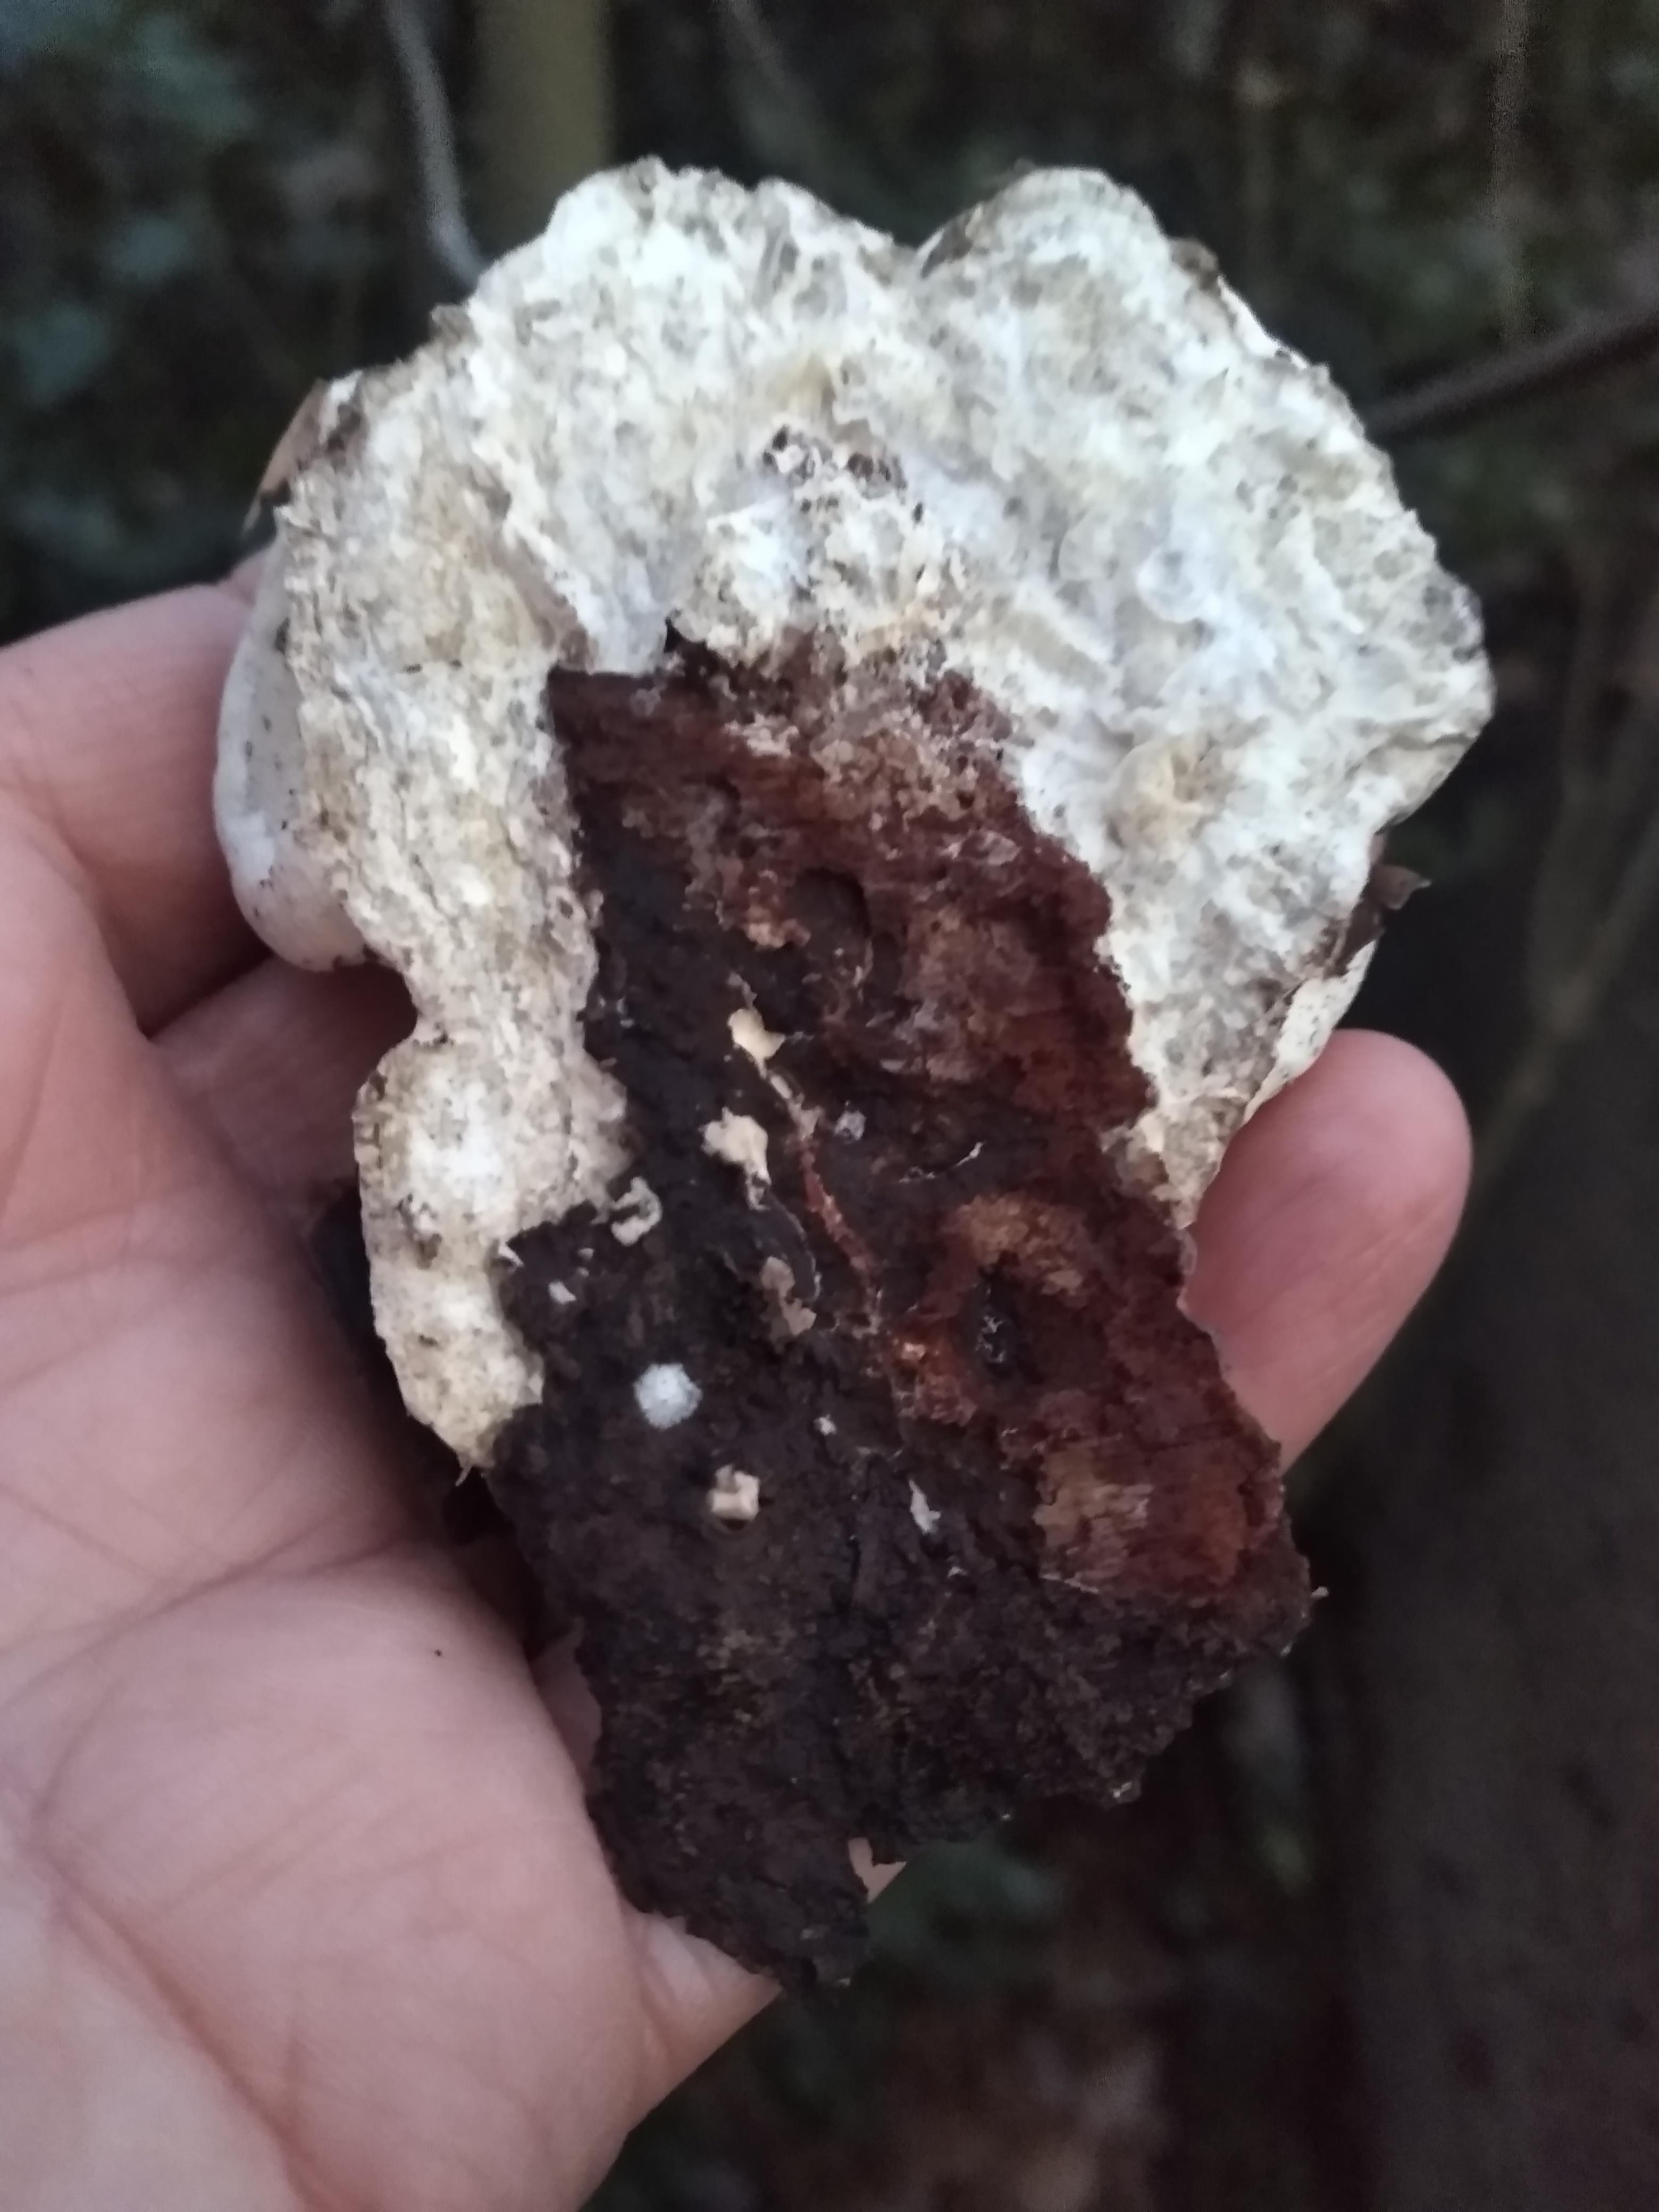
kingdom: Fungi
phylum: Basidiomycota
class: Agaricomycetes
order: Polyporales
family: Fomitopsidaceae
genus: Fomitopsis
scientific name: Fomitopsis pinicola
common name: randbæltet hovporesvamp
